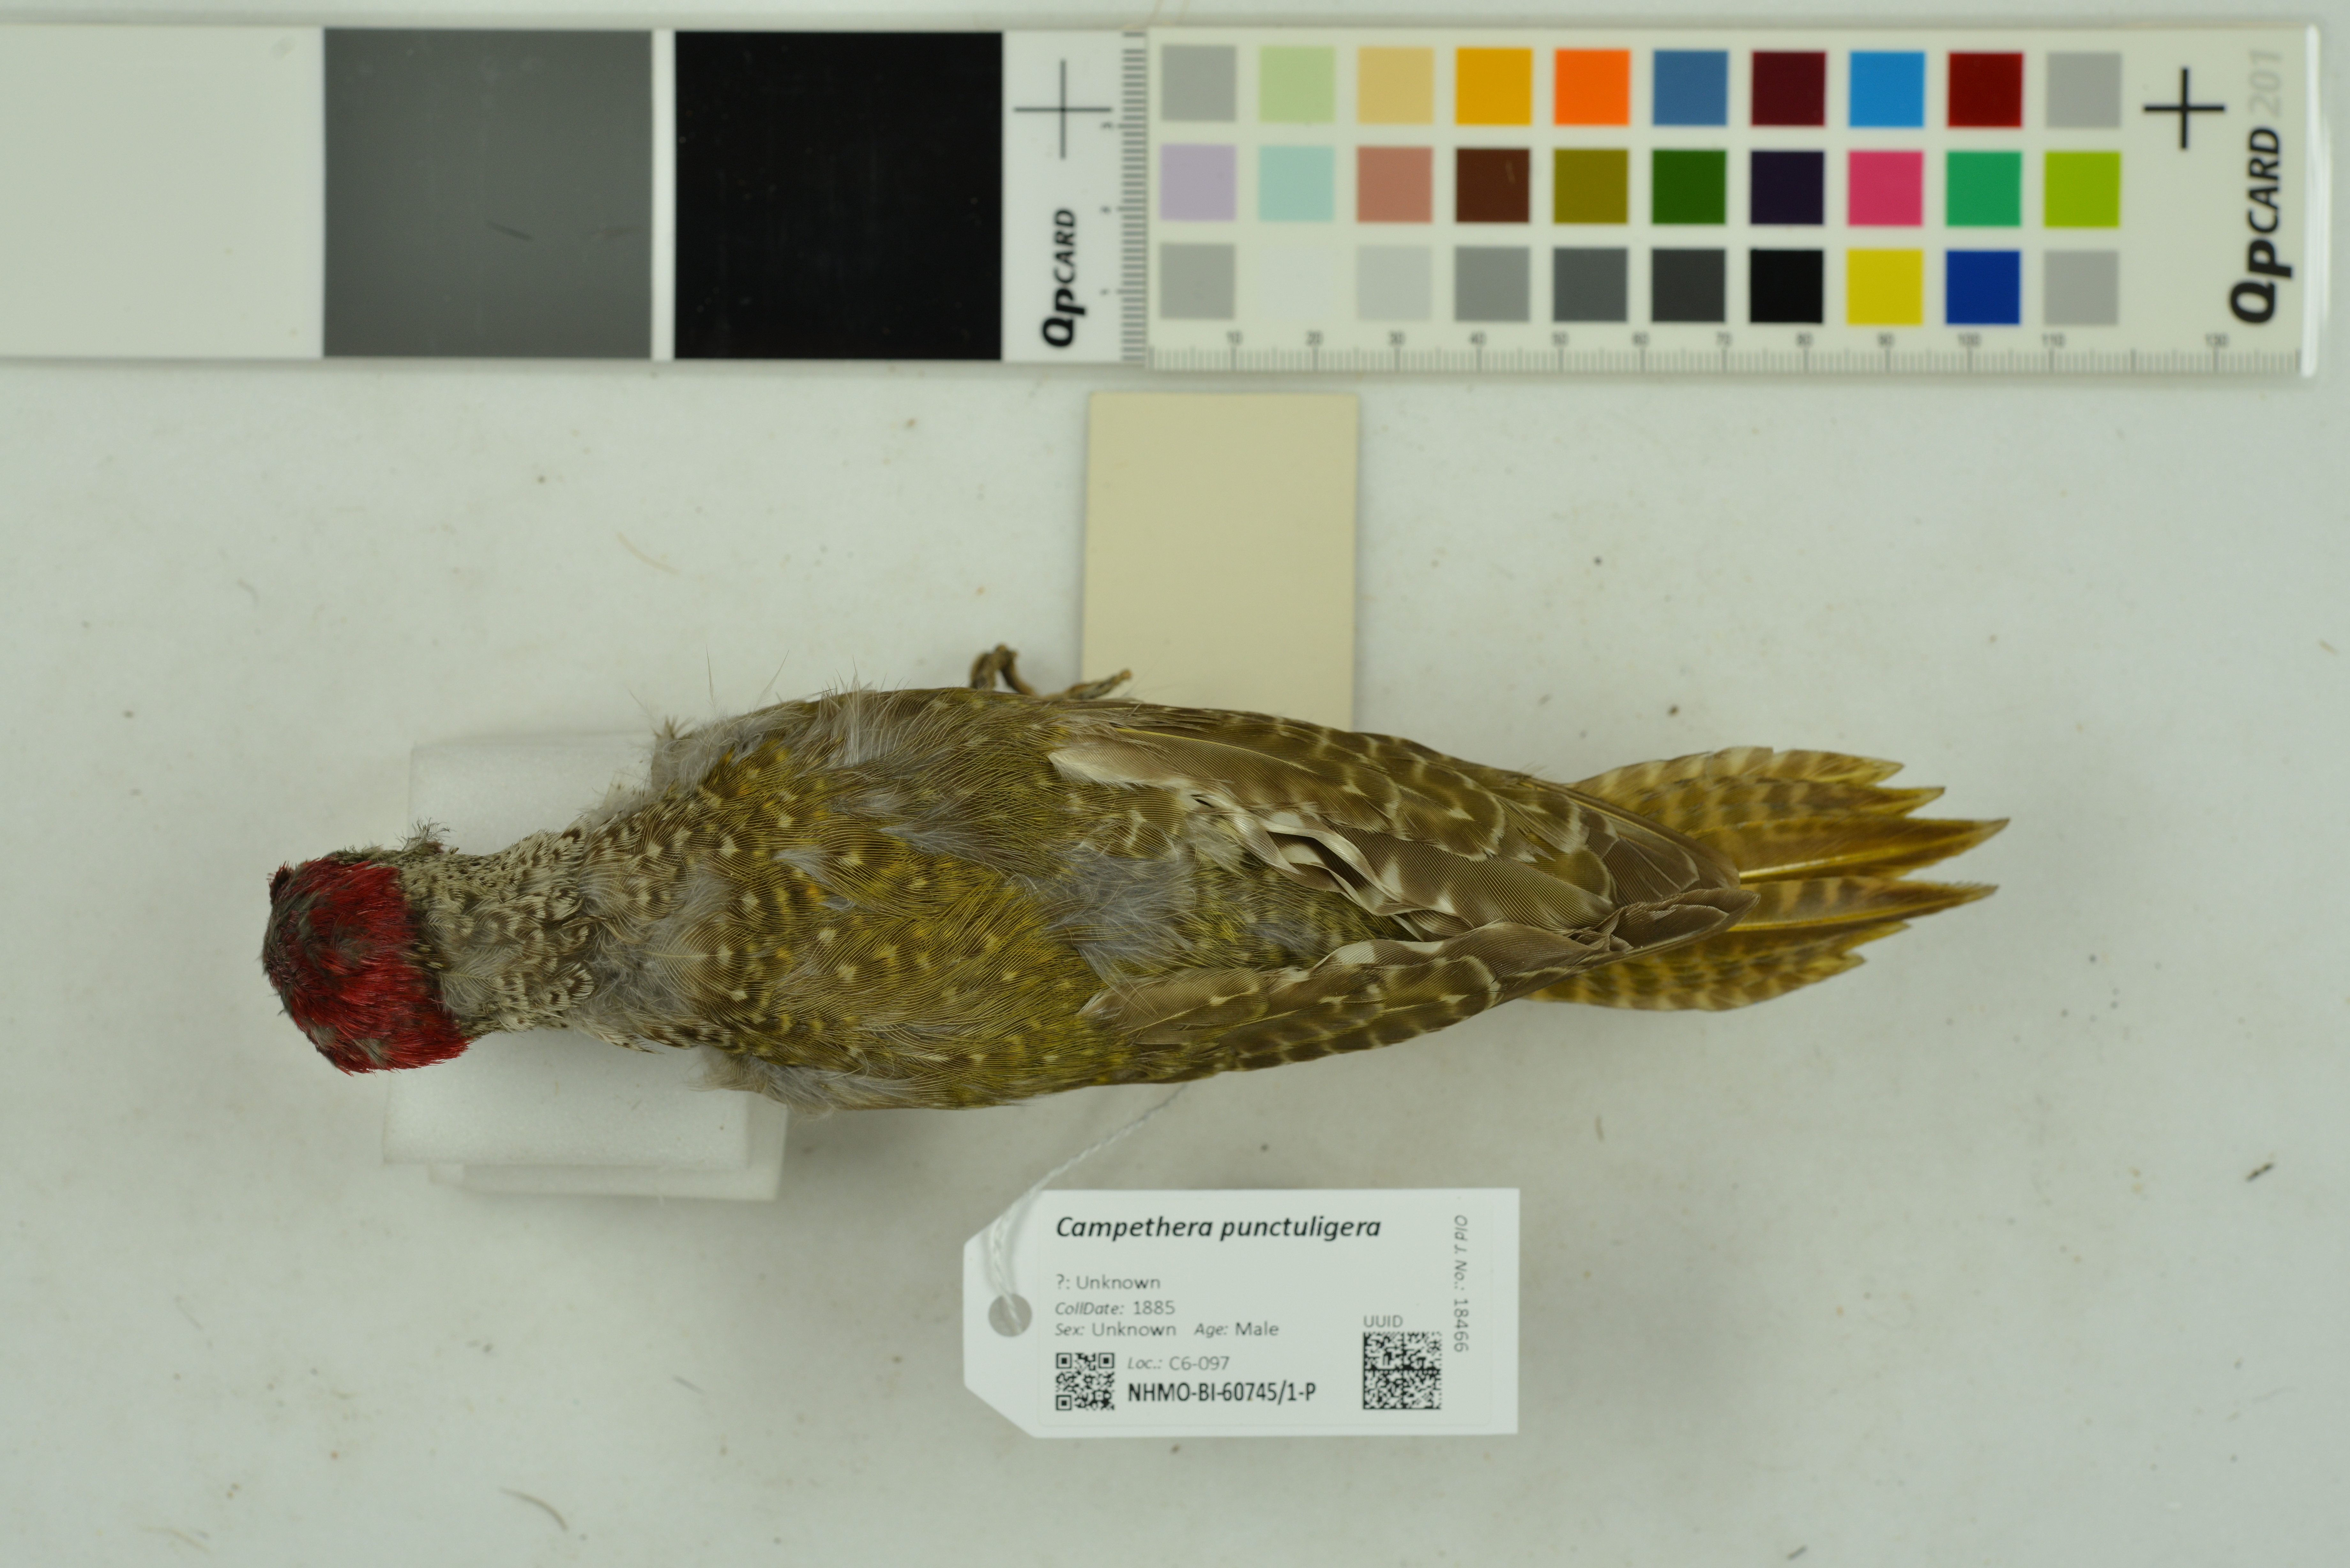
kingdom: Animalia
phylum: Chordata
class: Aves
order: Piciformes
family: Picidae
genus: Campethera
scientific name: Campethera punctuligera
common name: Fine-spotted woodpecker
